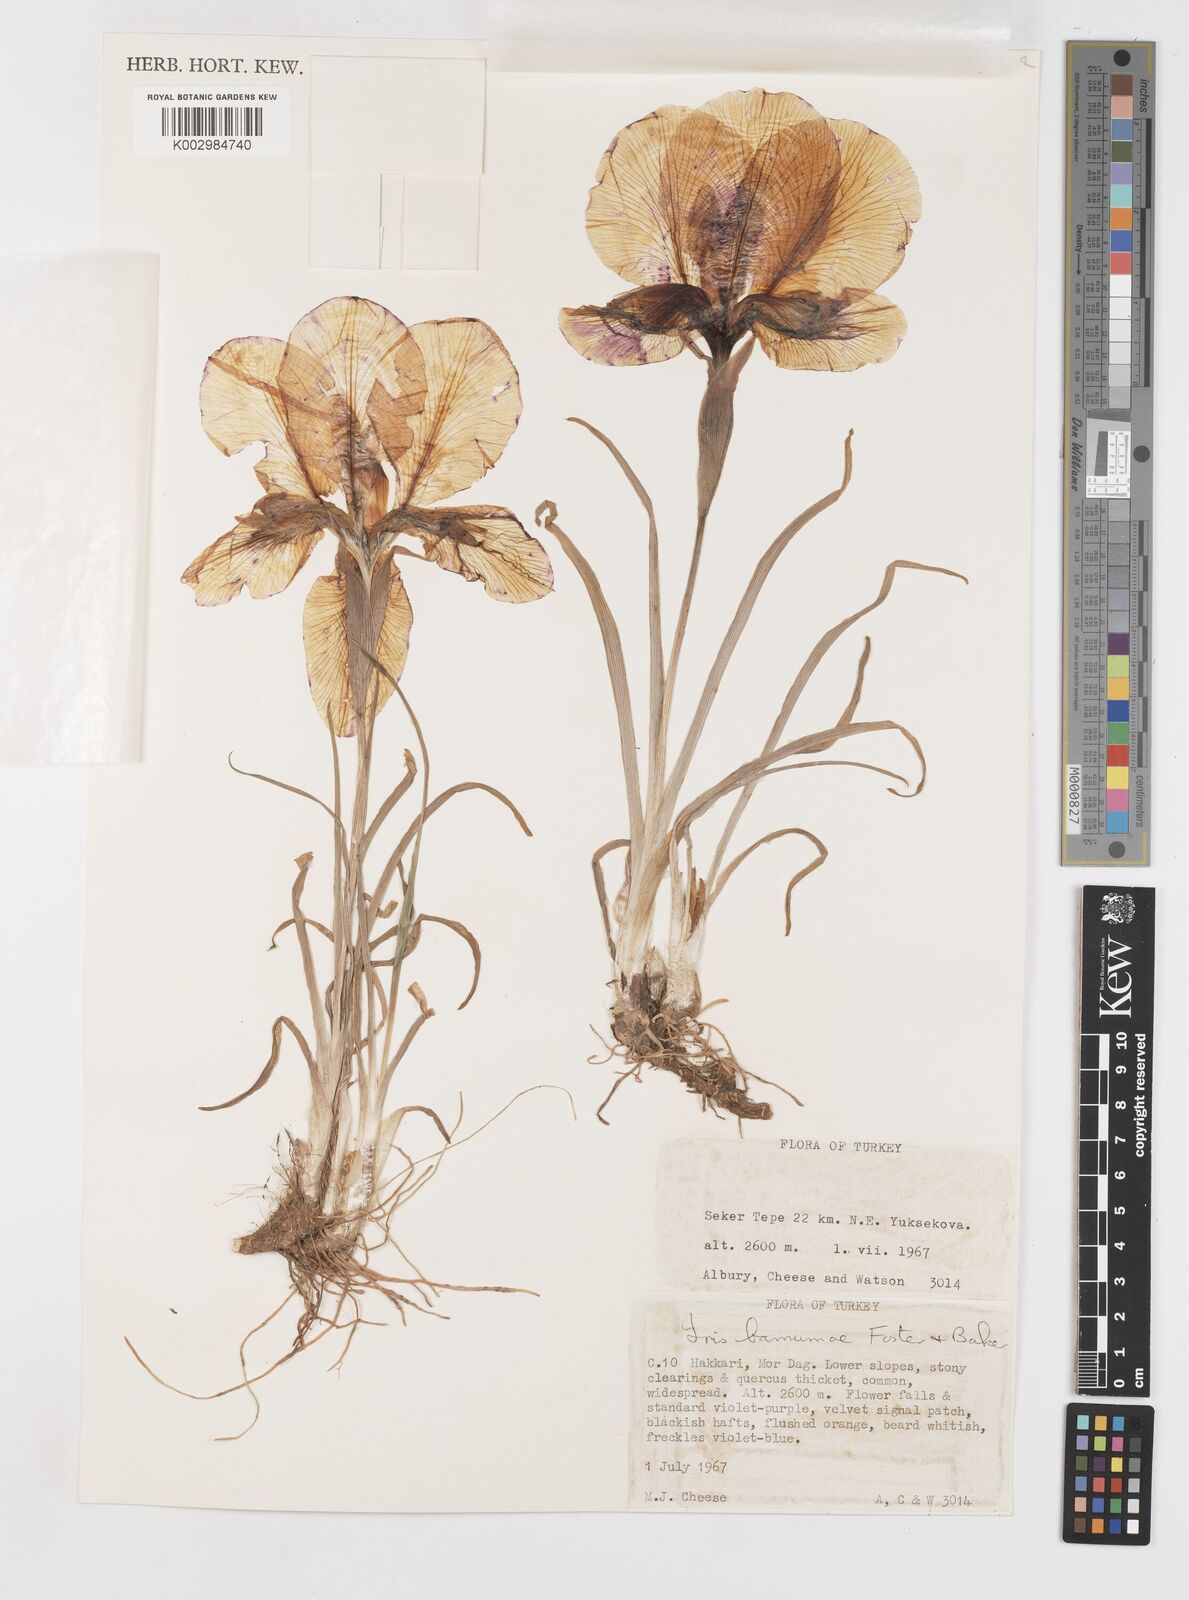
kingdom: Plantae
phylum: Tracheophyta
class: Liliopsida
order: Asparagales
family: Iridaceae
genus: Iris
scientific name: Iris barnumiae
